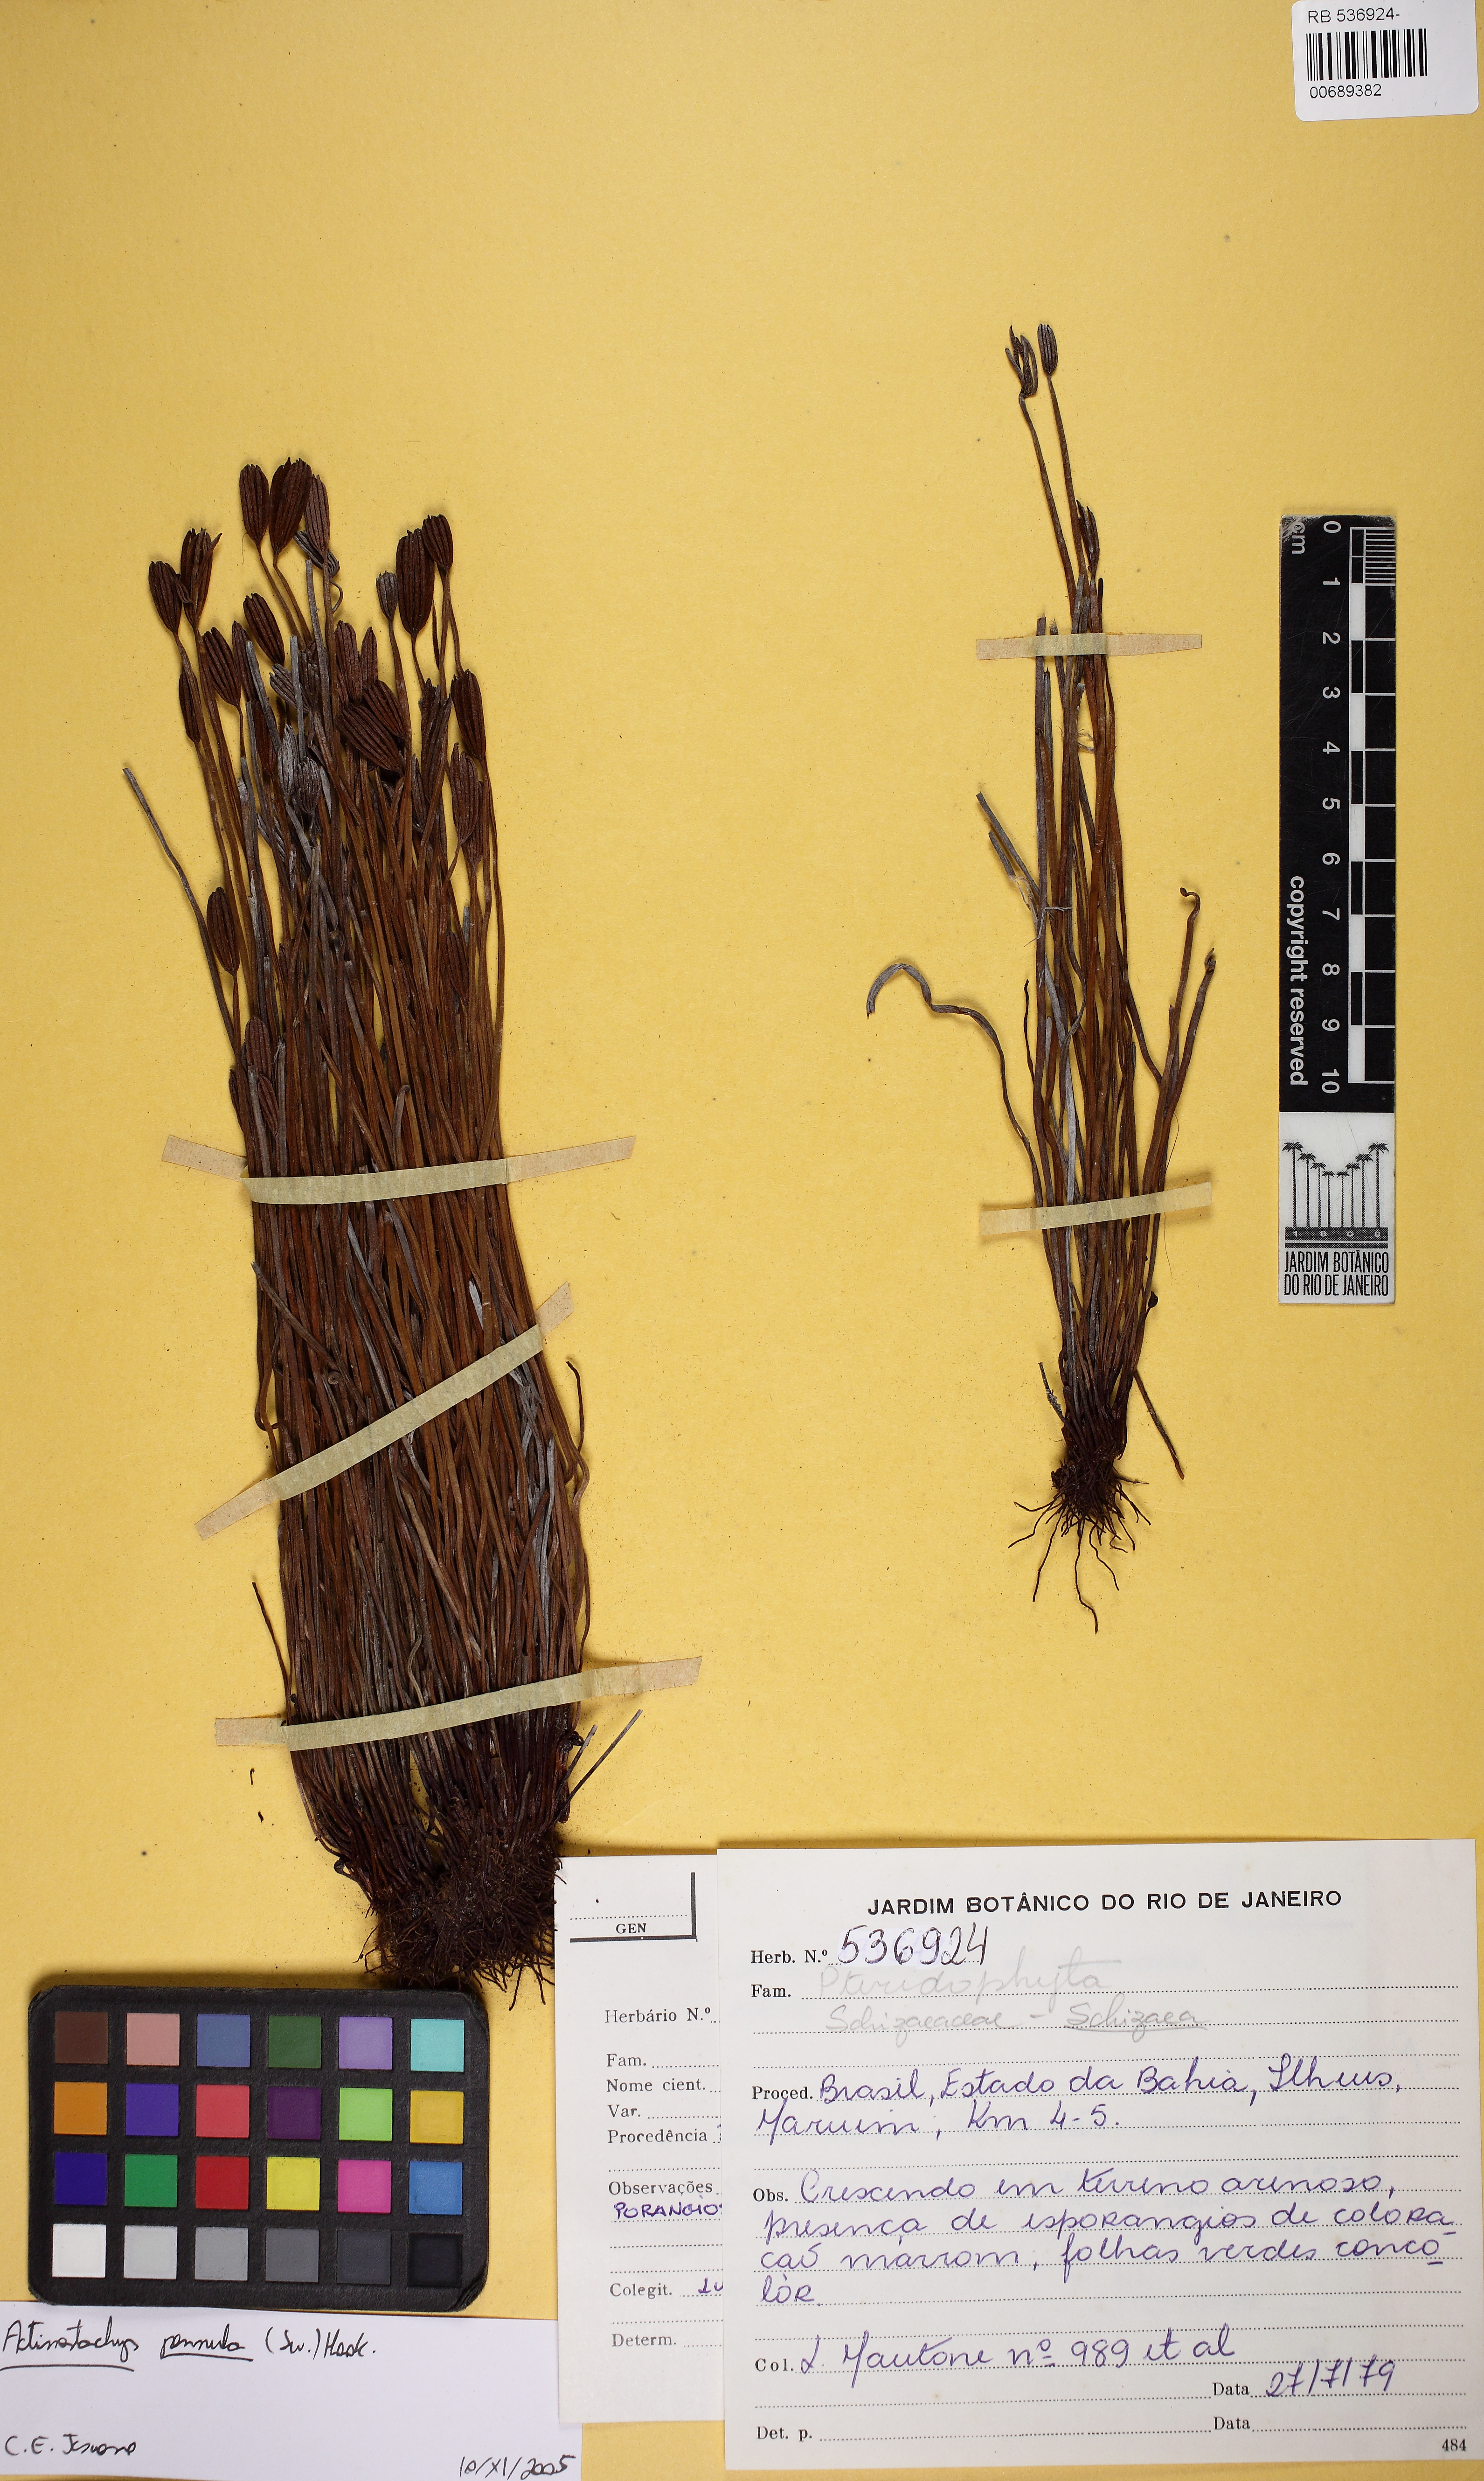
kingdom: Plantae
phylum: Tracheophyta
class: Polypodiopsida
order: Schizaeales
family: Schizaeaceae
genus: Actinostachys
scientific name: Actinostachys pennula
